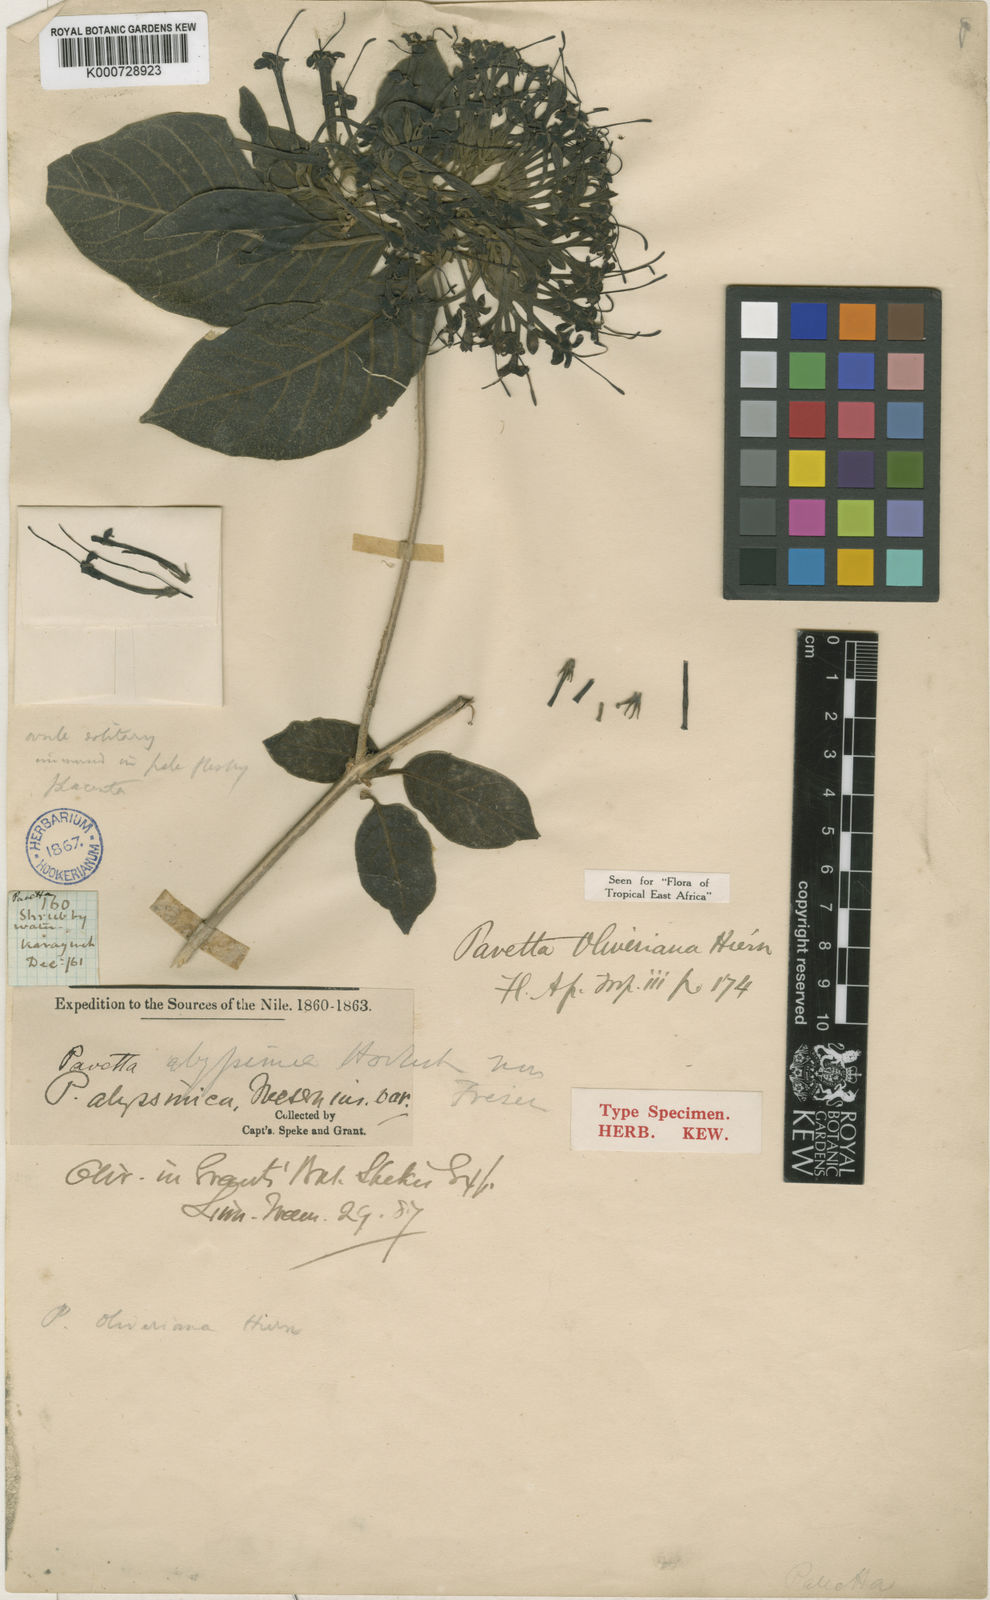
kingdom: Plantae
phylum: Tracheophyta
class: Magnoliopsida
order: Gentianales
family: Rubiaceae
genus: Pavetta
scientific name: Pavetta oliveriana
